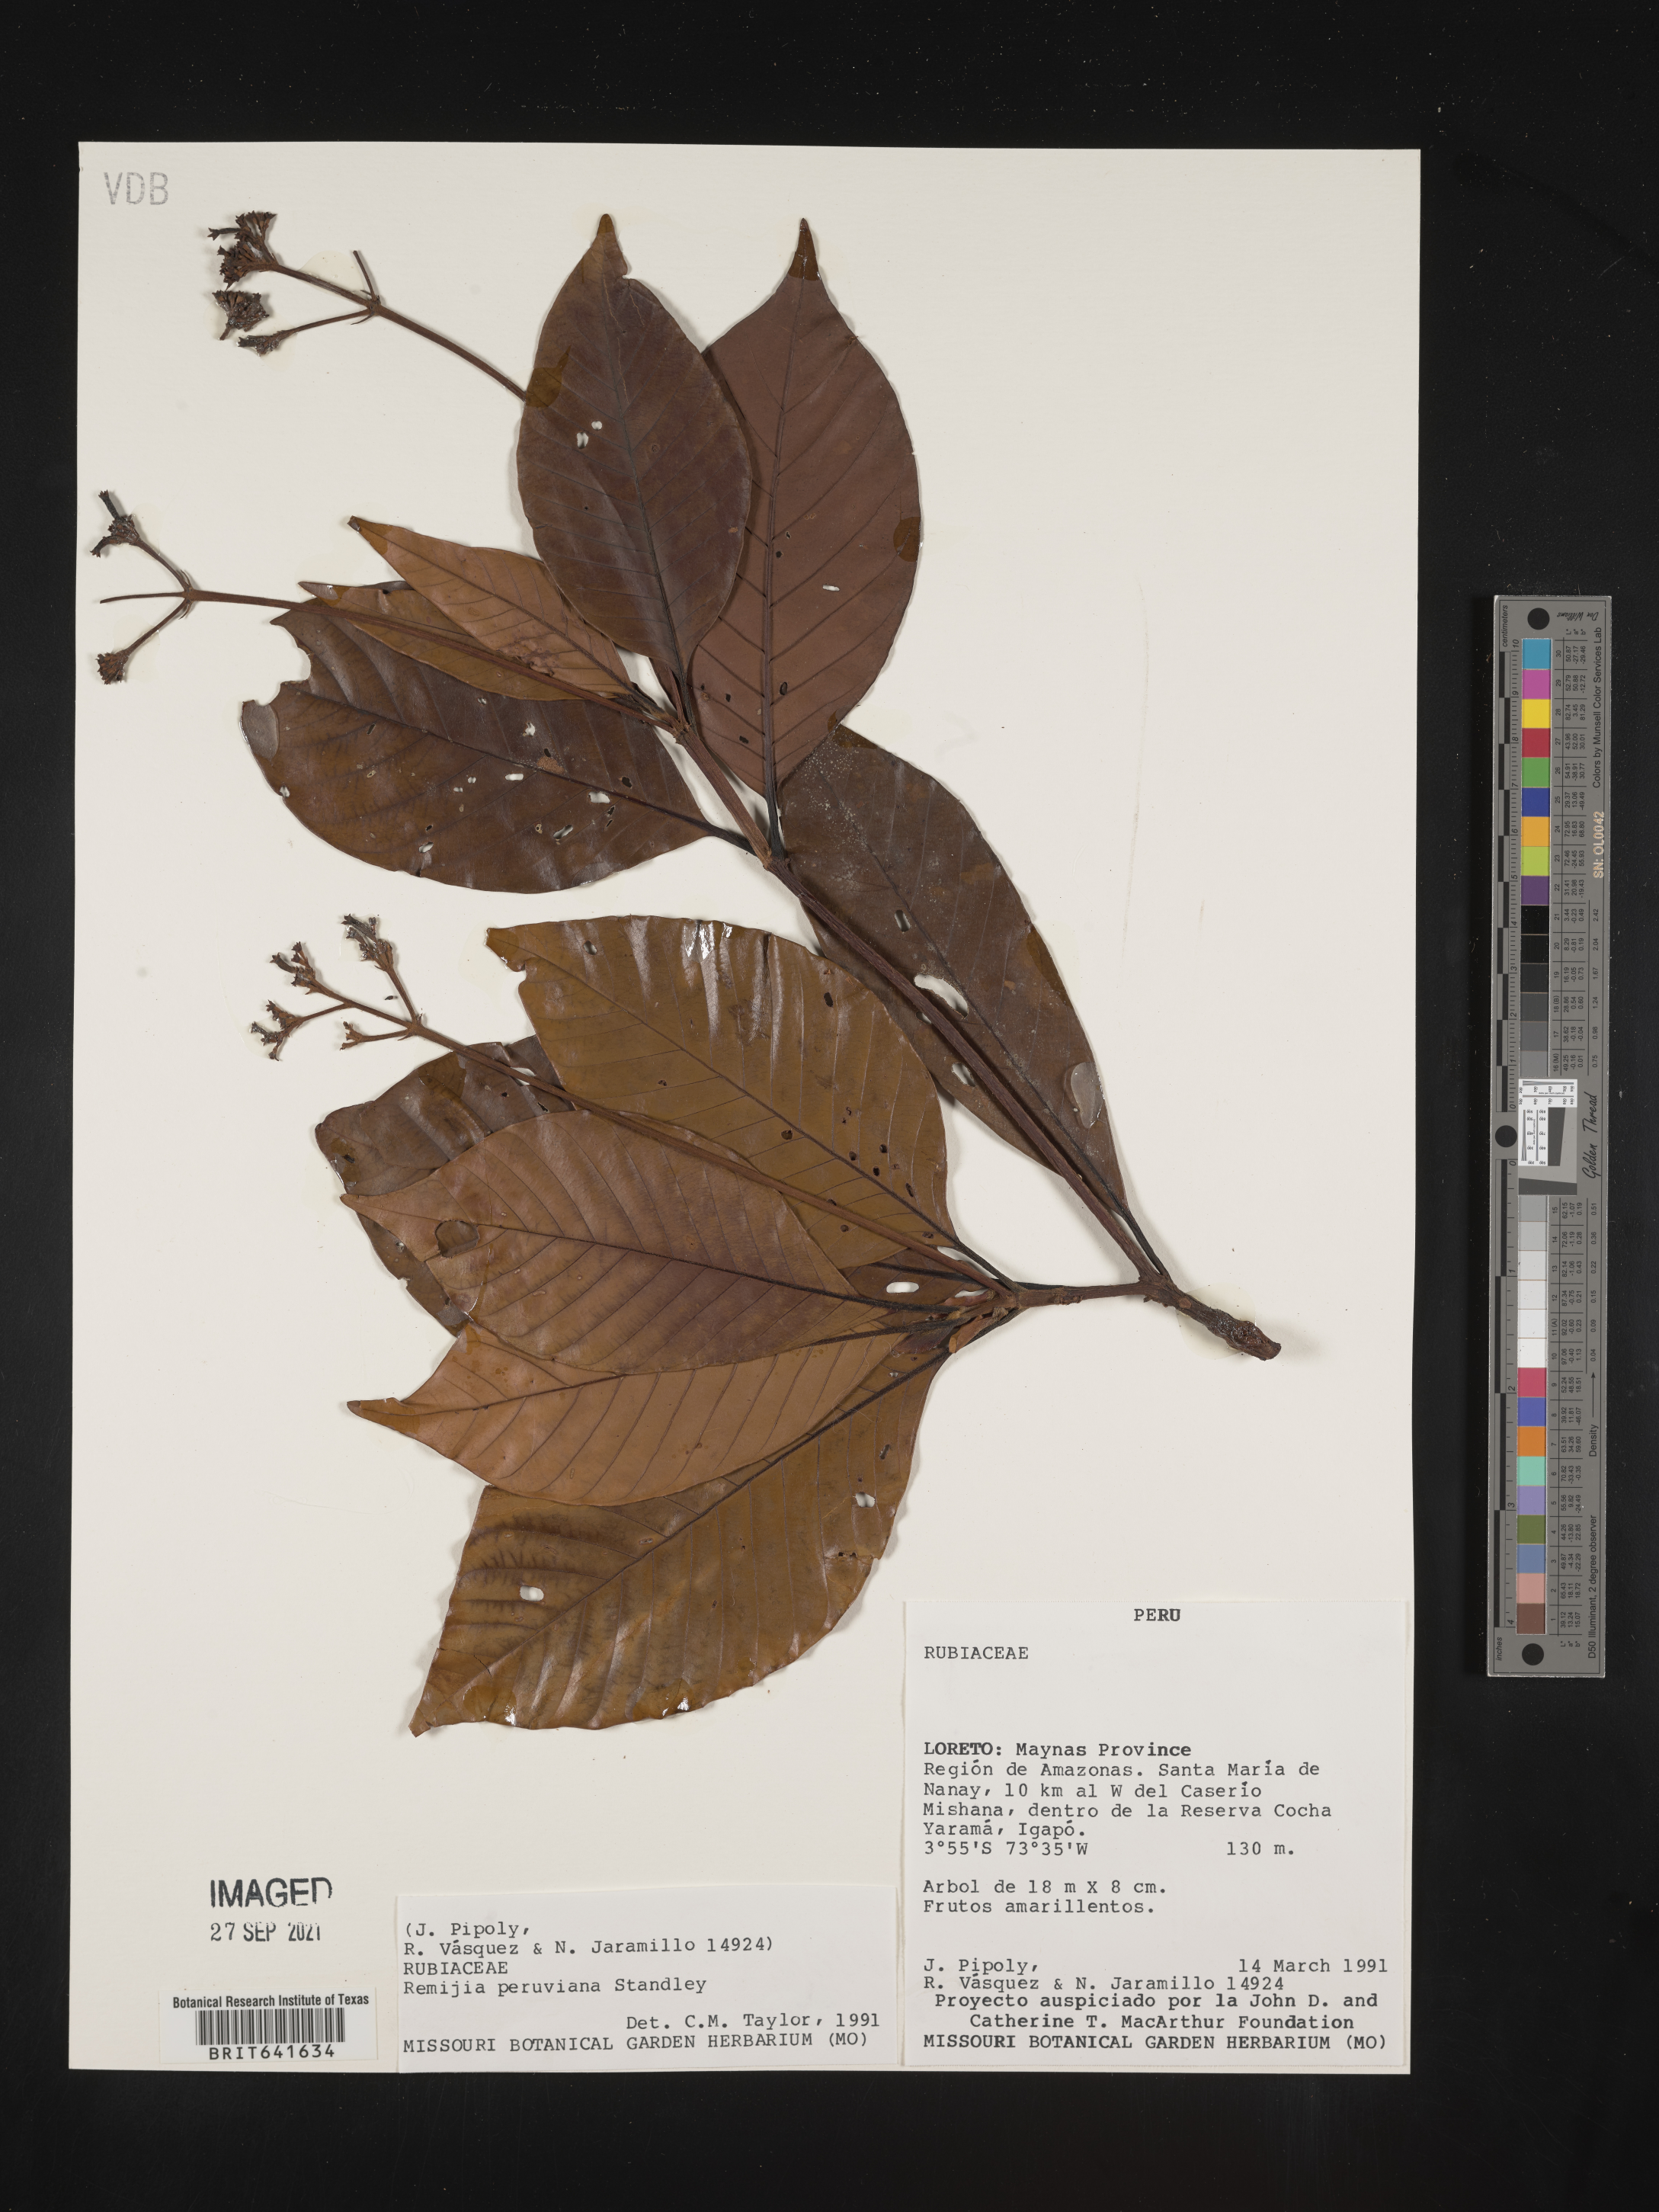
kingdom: Plantae
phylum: Tracheophyta
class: Magnoliopsida
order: Gentianales
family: Rubiaceae
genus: Remijia
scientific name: Remijia
